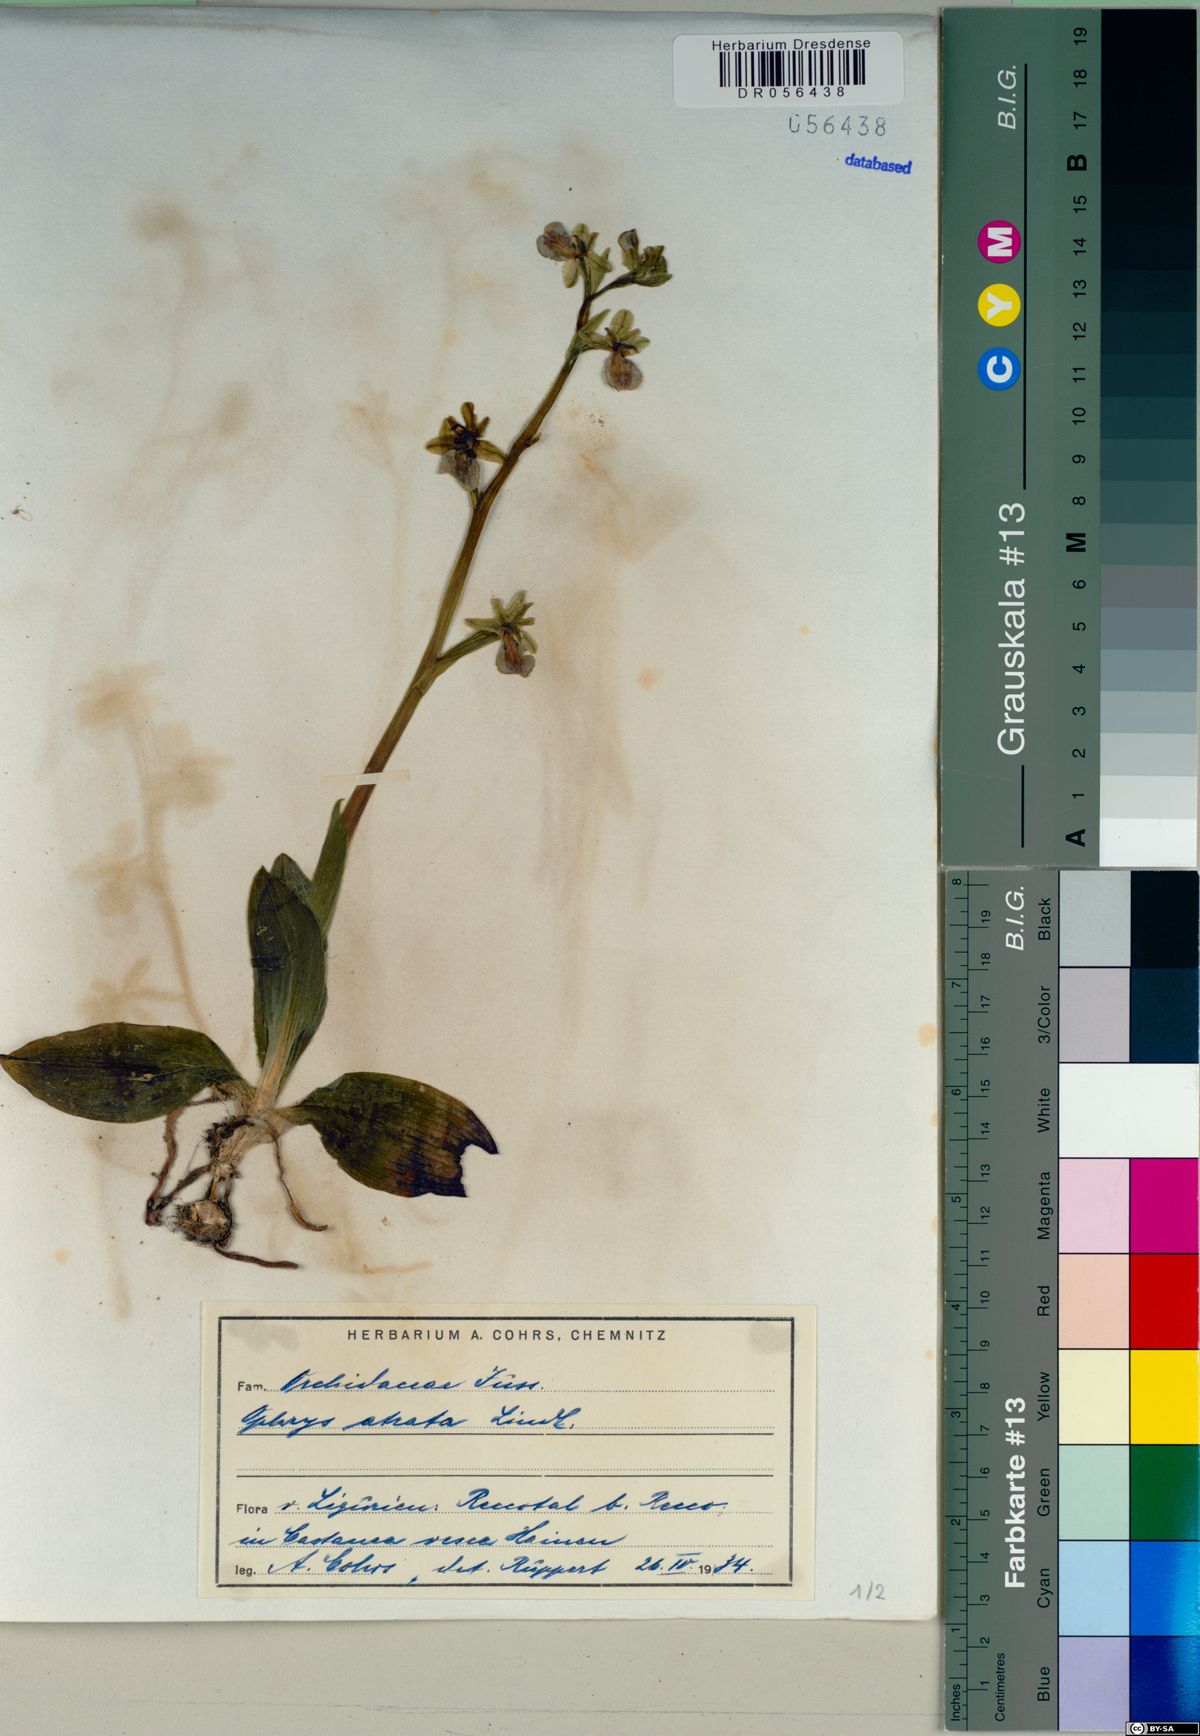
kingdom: Plantae
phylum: Tracheophyta
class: Liliopsida
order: Asparagales
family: Orchidaceae
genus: Ophrys
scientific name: Ophrys sphegodes
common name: Early spider-orchid
